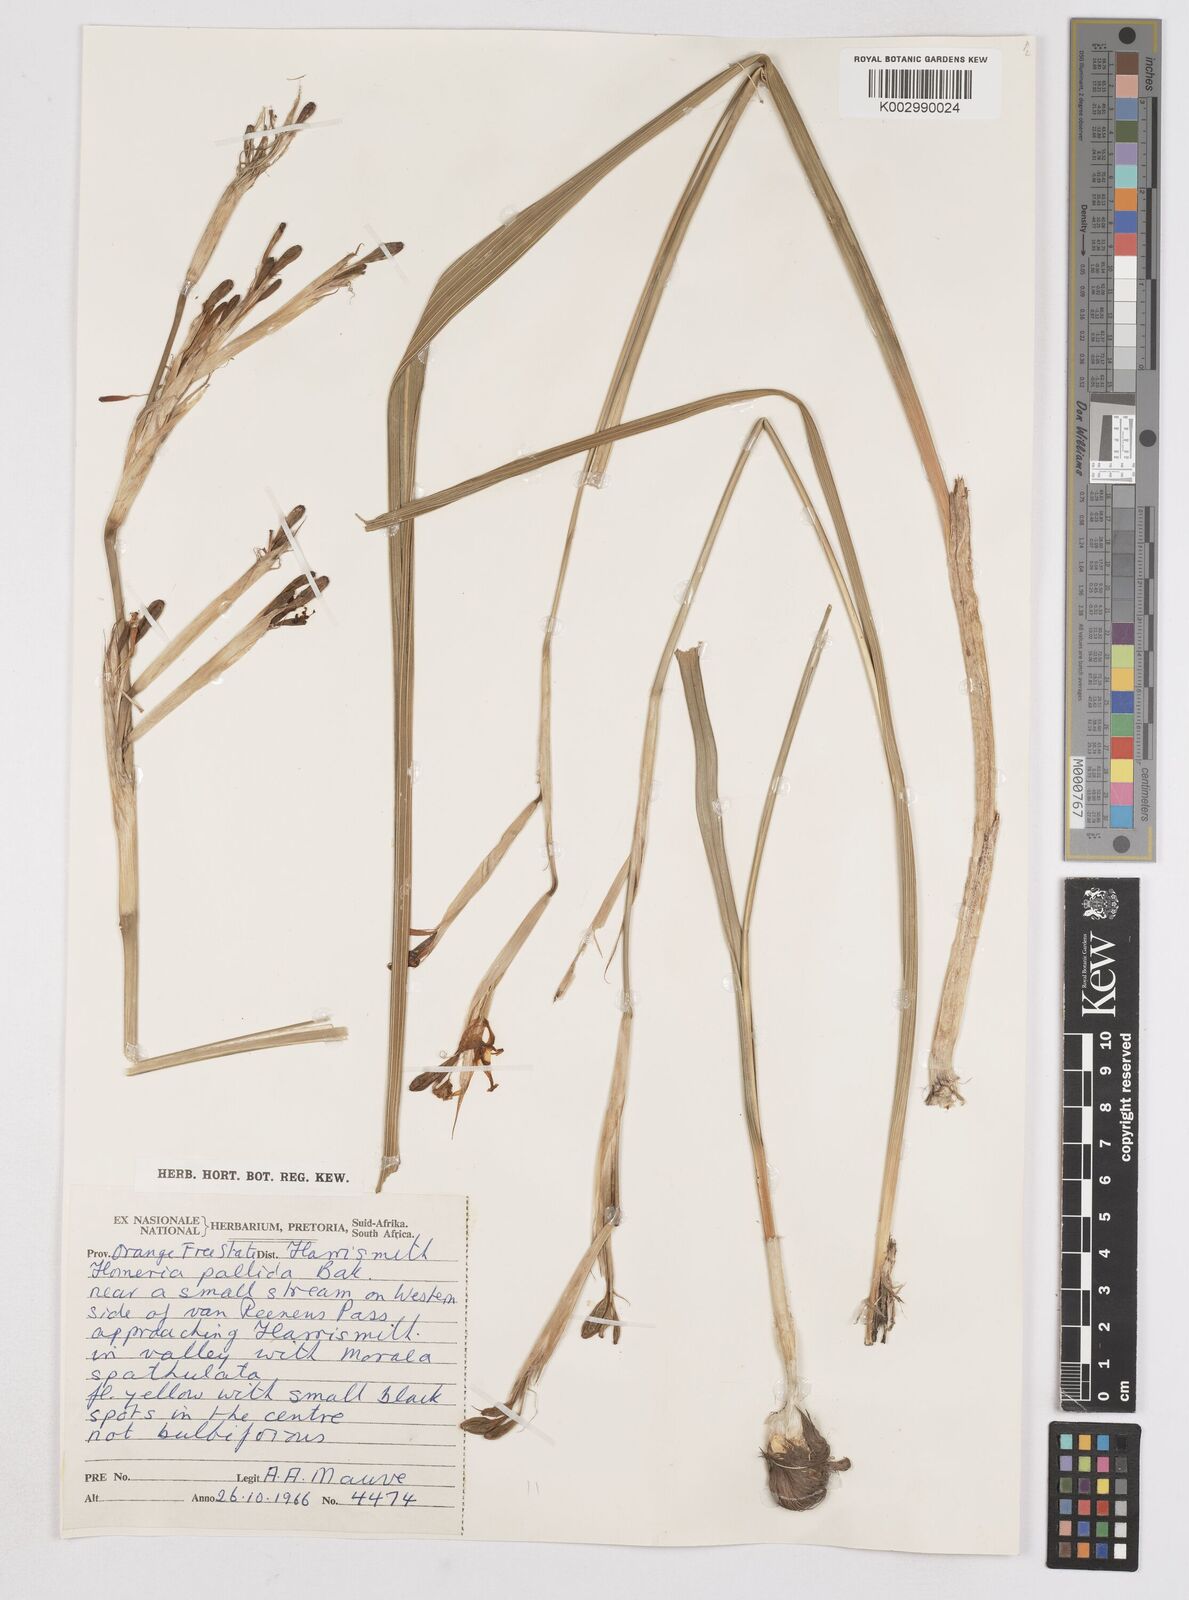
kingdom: Plantae
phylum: Tracheophyta
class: Liliopsida
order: Asparagales
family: Iridaceae
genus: Moraea
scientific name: Moraea pallida
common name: Yellow tulp
